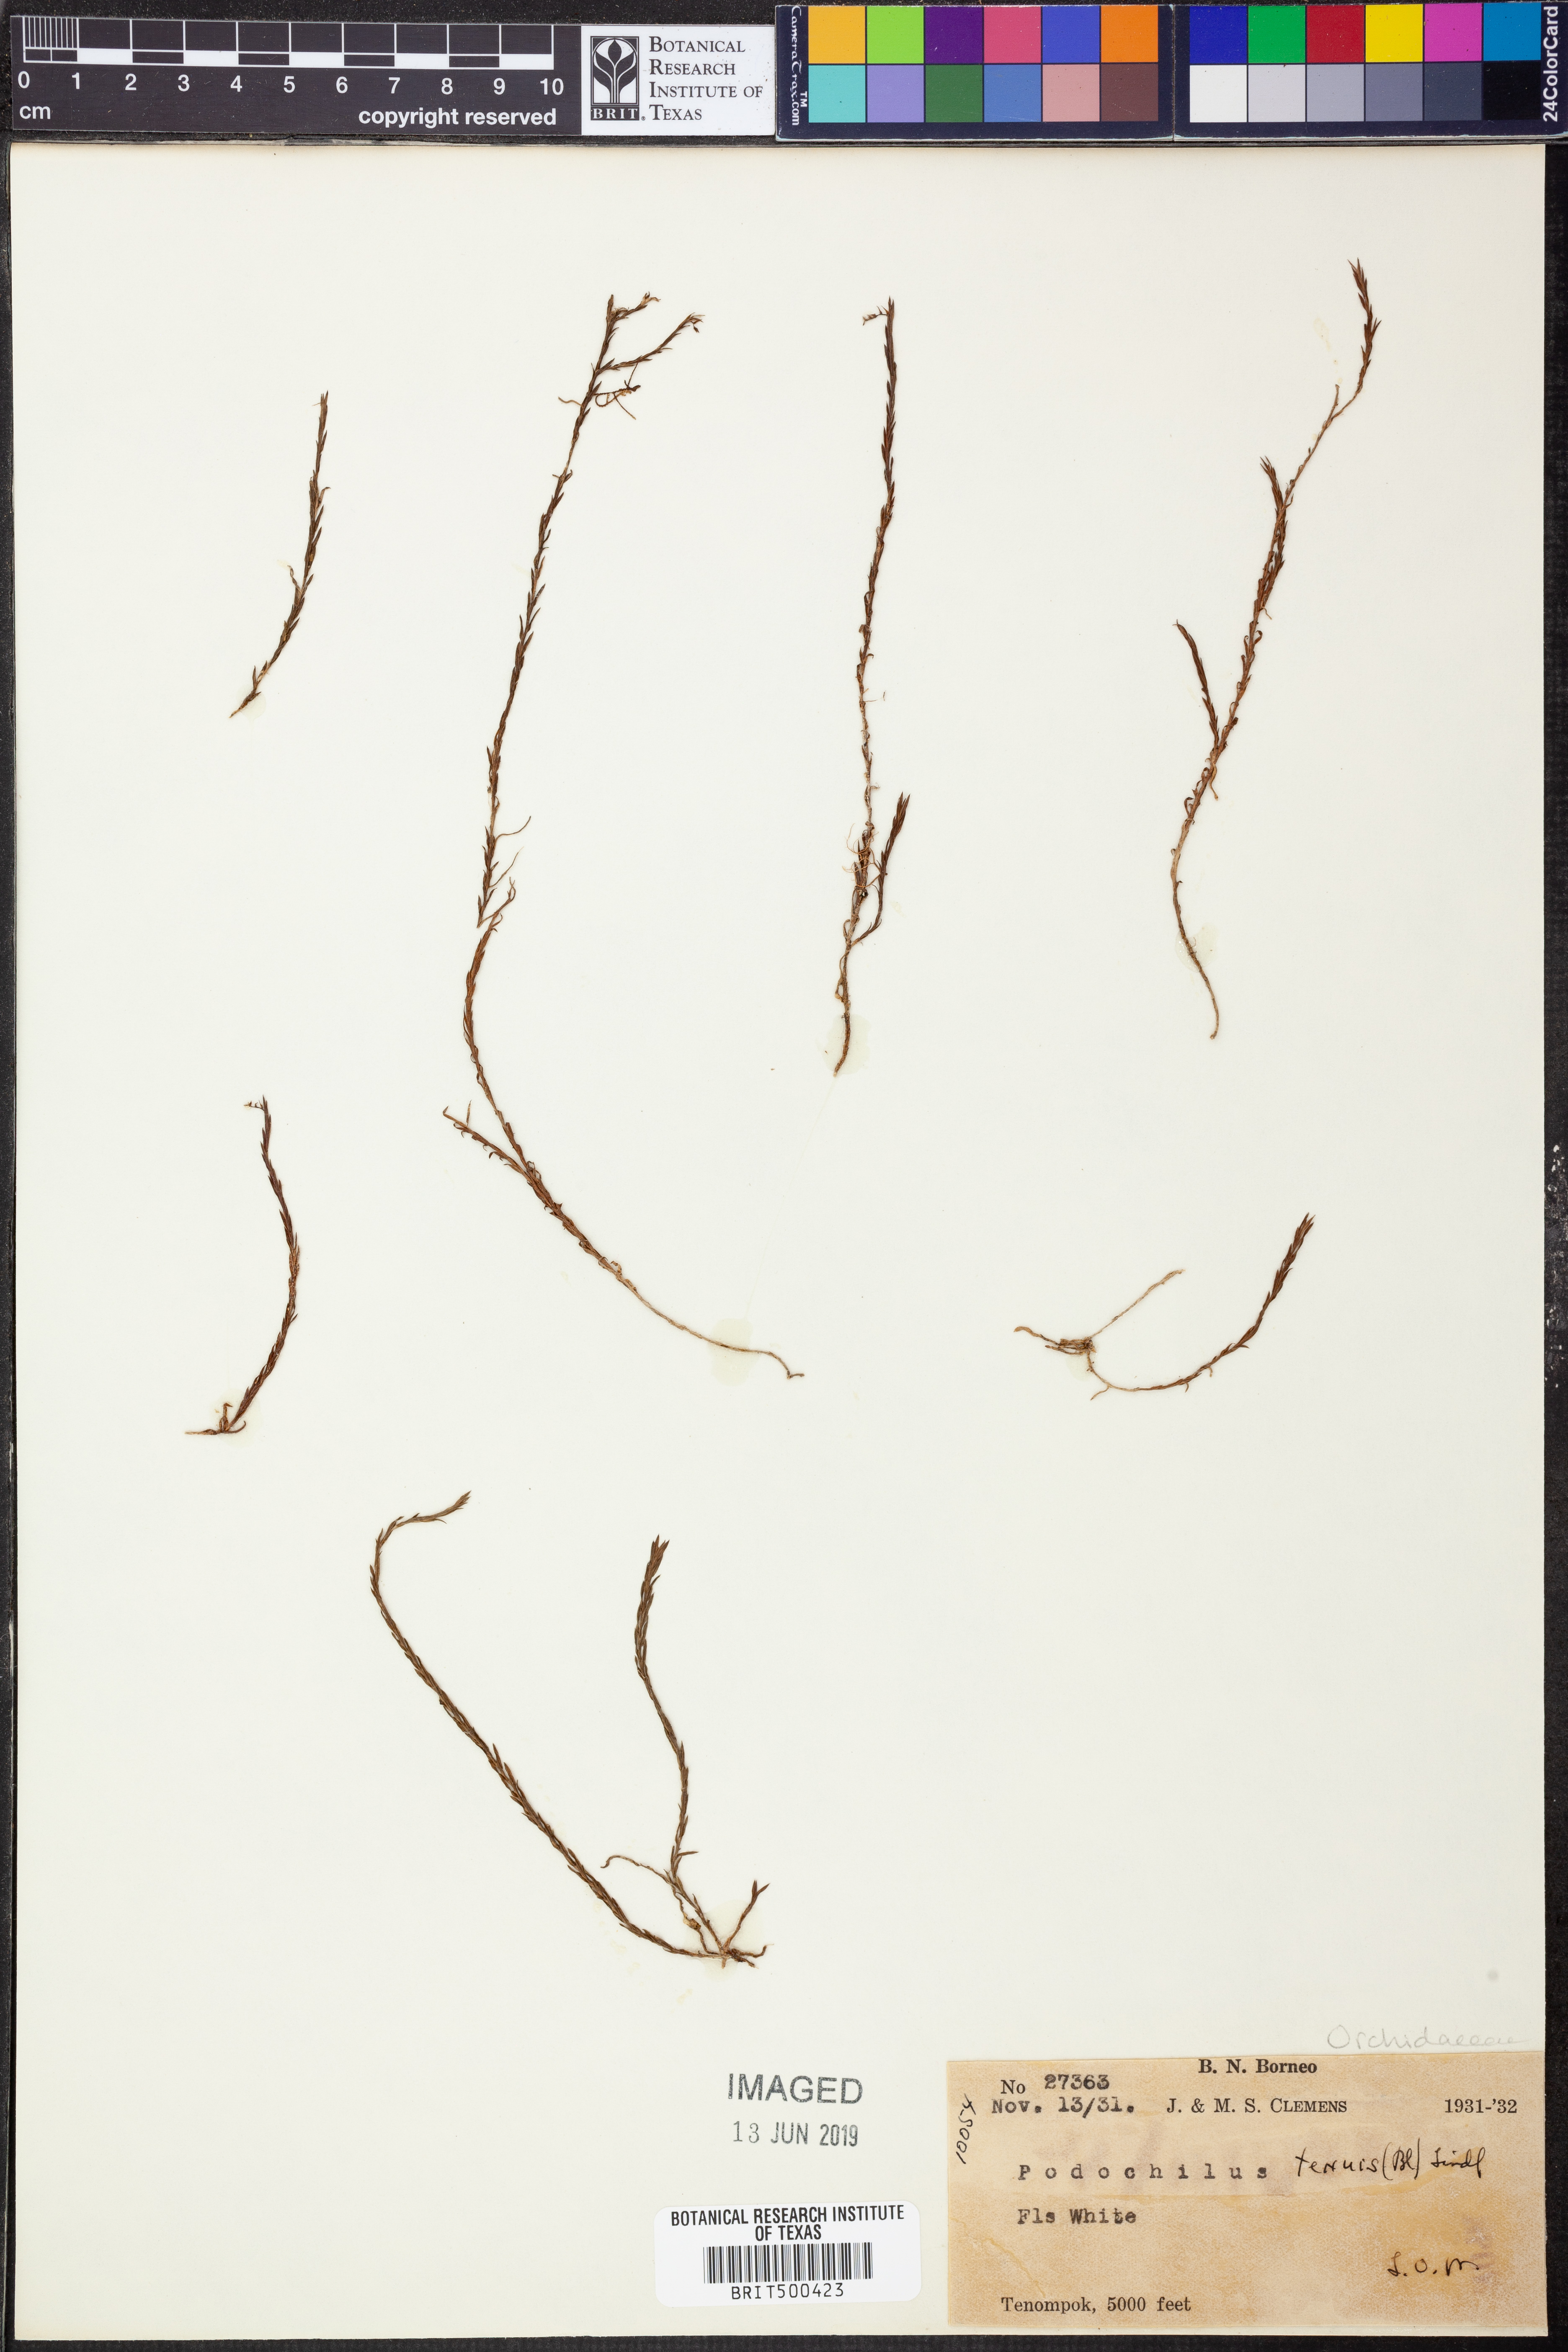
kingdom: Plantae
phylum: Tracheophyta
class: Liliopsida
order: Asparagales
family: Orchidaceae
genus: Podochilus
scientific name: Podochilus tenuis
